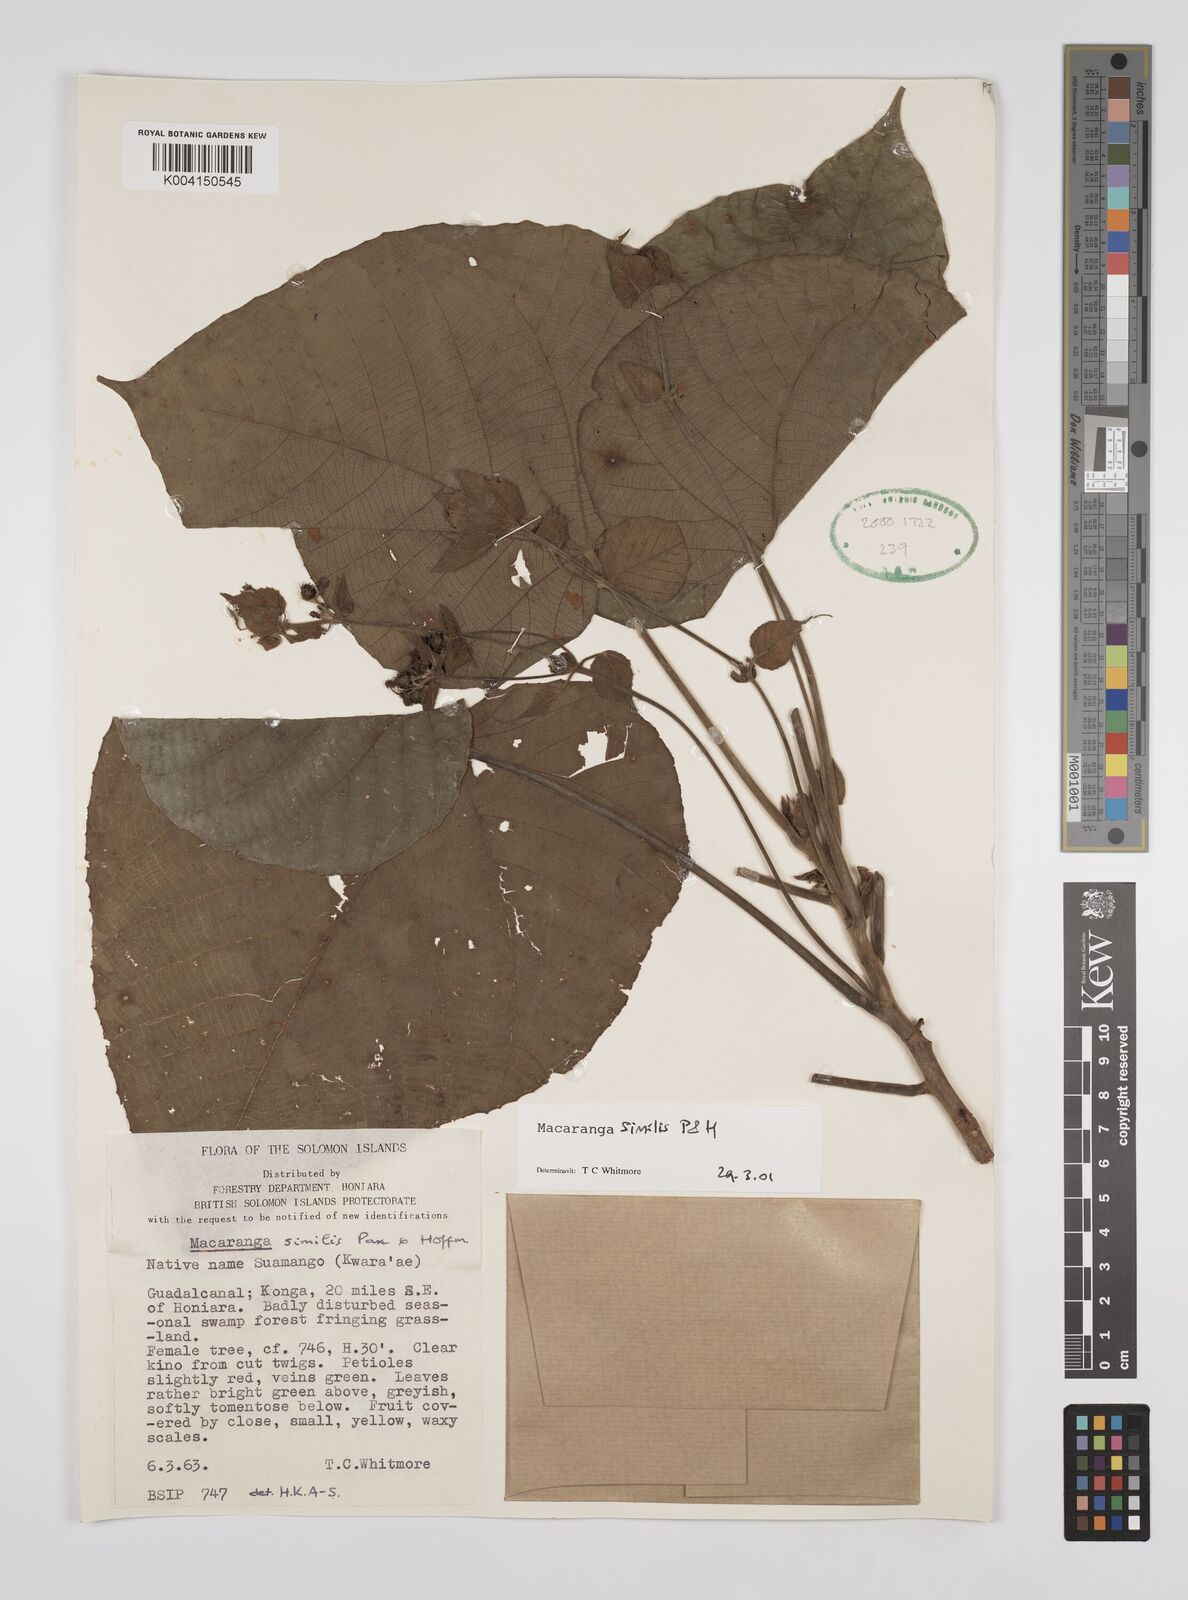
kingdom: Plantae
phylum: Tracheophyta
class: Magnoliopsida
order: Malpighiales
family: Euphorbiaceae
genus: Macaranga
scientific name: Macaranga similis
